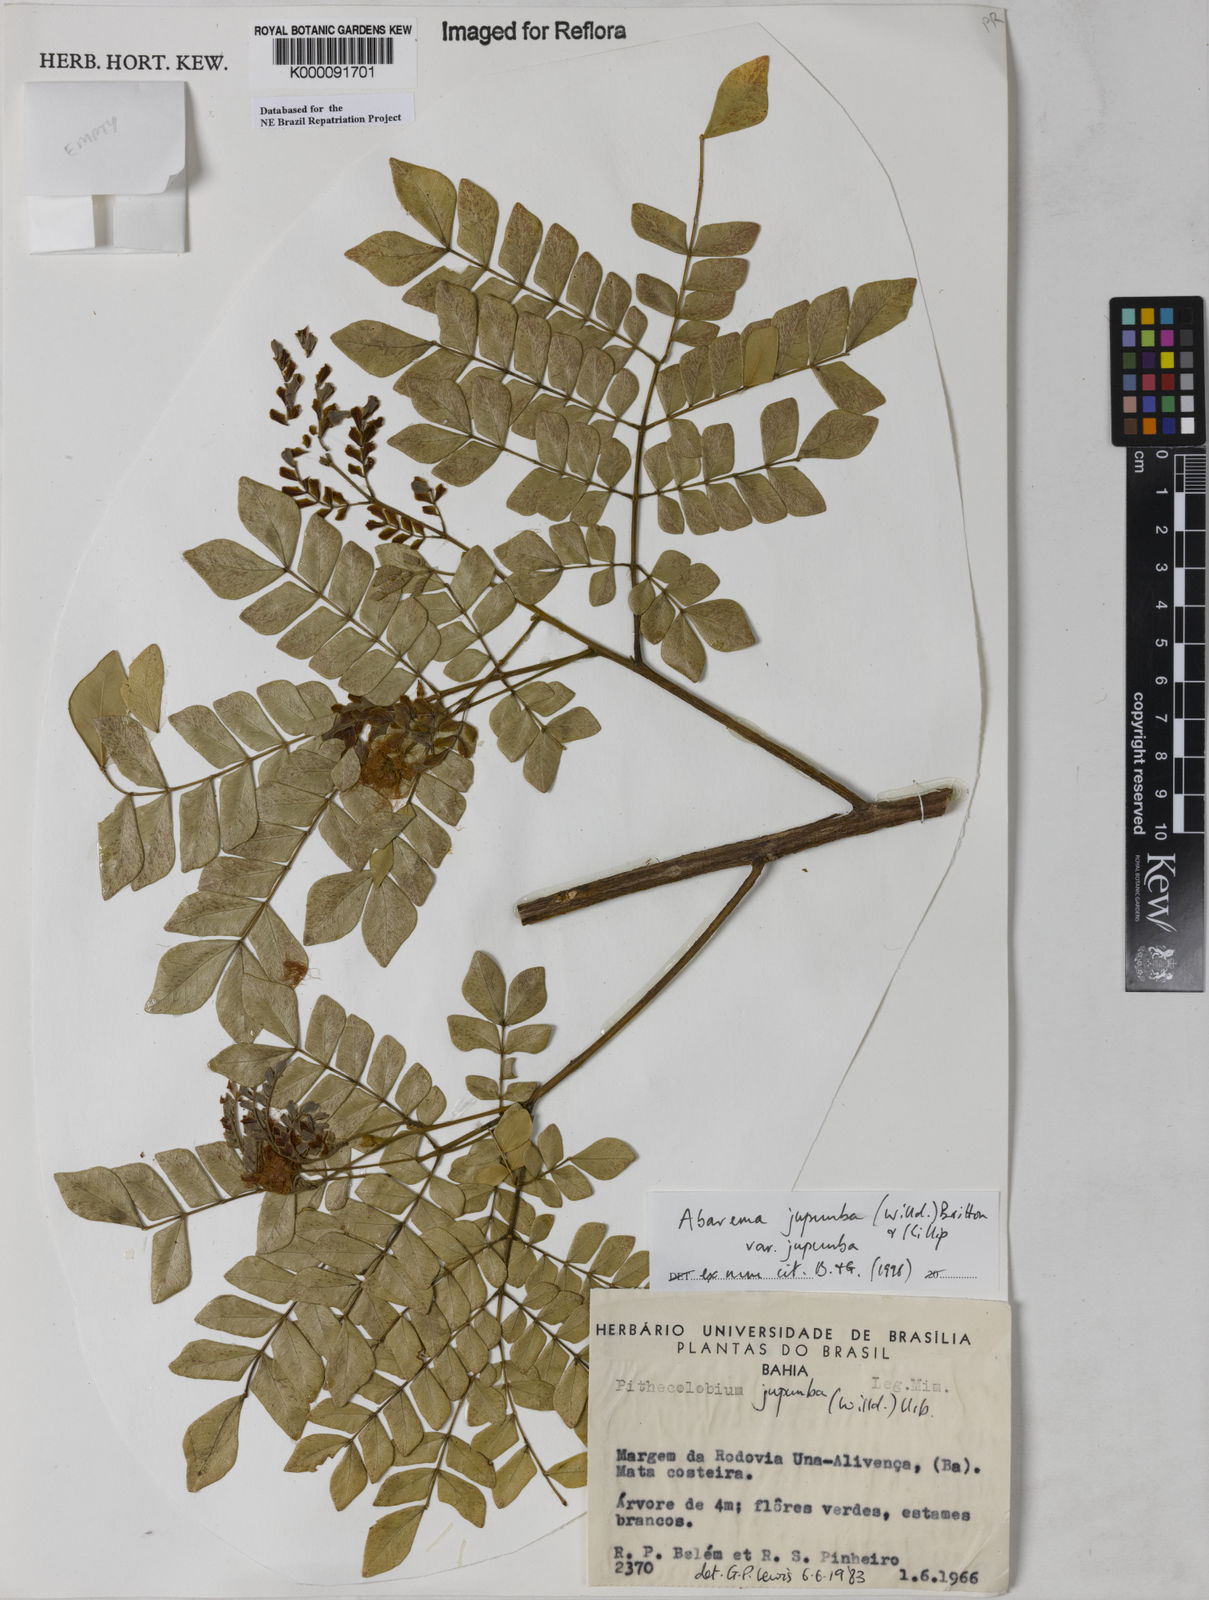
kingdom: Plantae
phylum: Tracheophyta
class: Magnoliopsida
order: Fabales
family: Fabaceae
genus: Jupunba
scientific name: Jupunba trapezifolia
